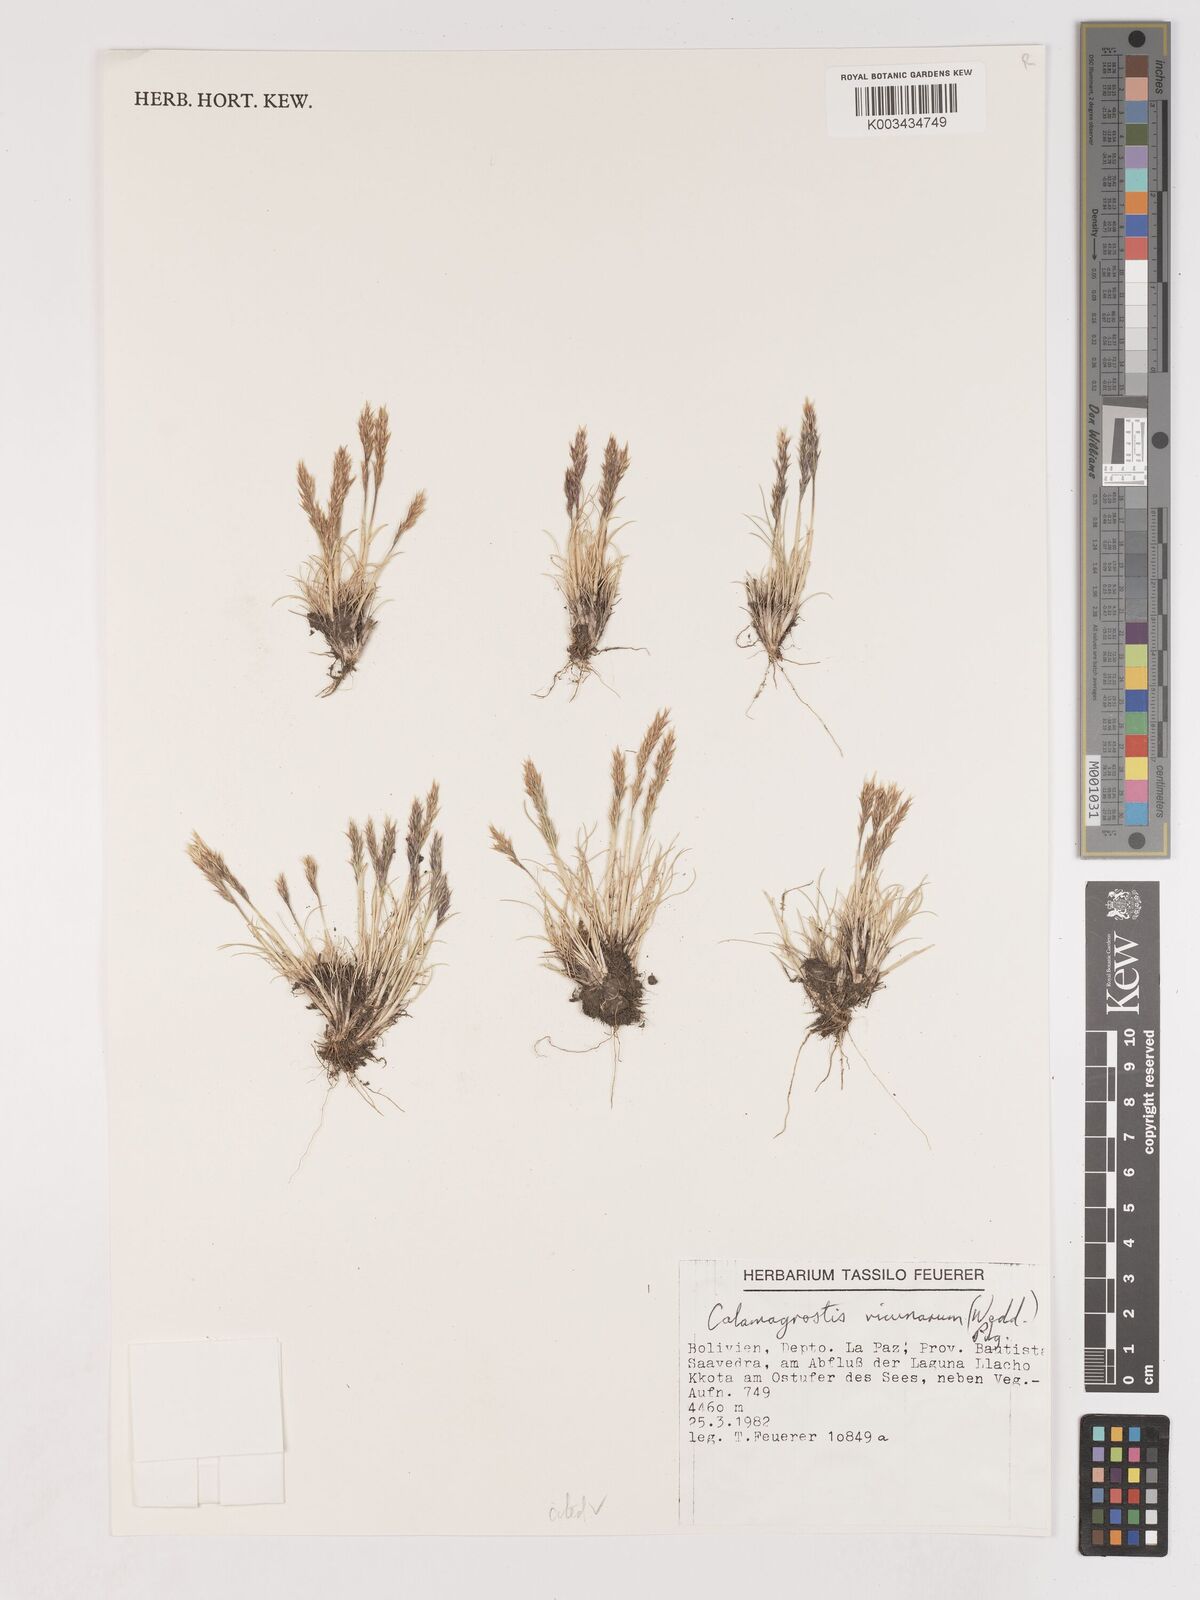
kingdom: Plantae
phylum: Tracheophyta
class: Liliopsida
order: Poales
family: Poaceae
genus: Cinnagrostis
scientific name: Cinnagrostis vicunarum
